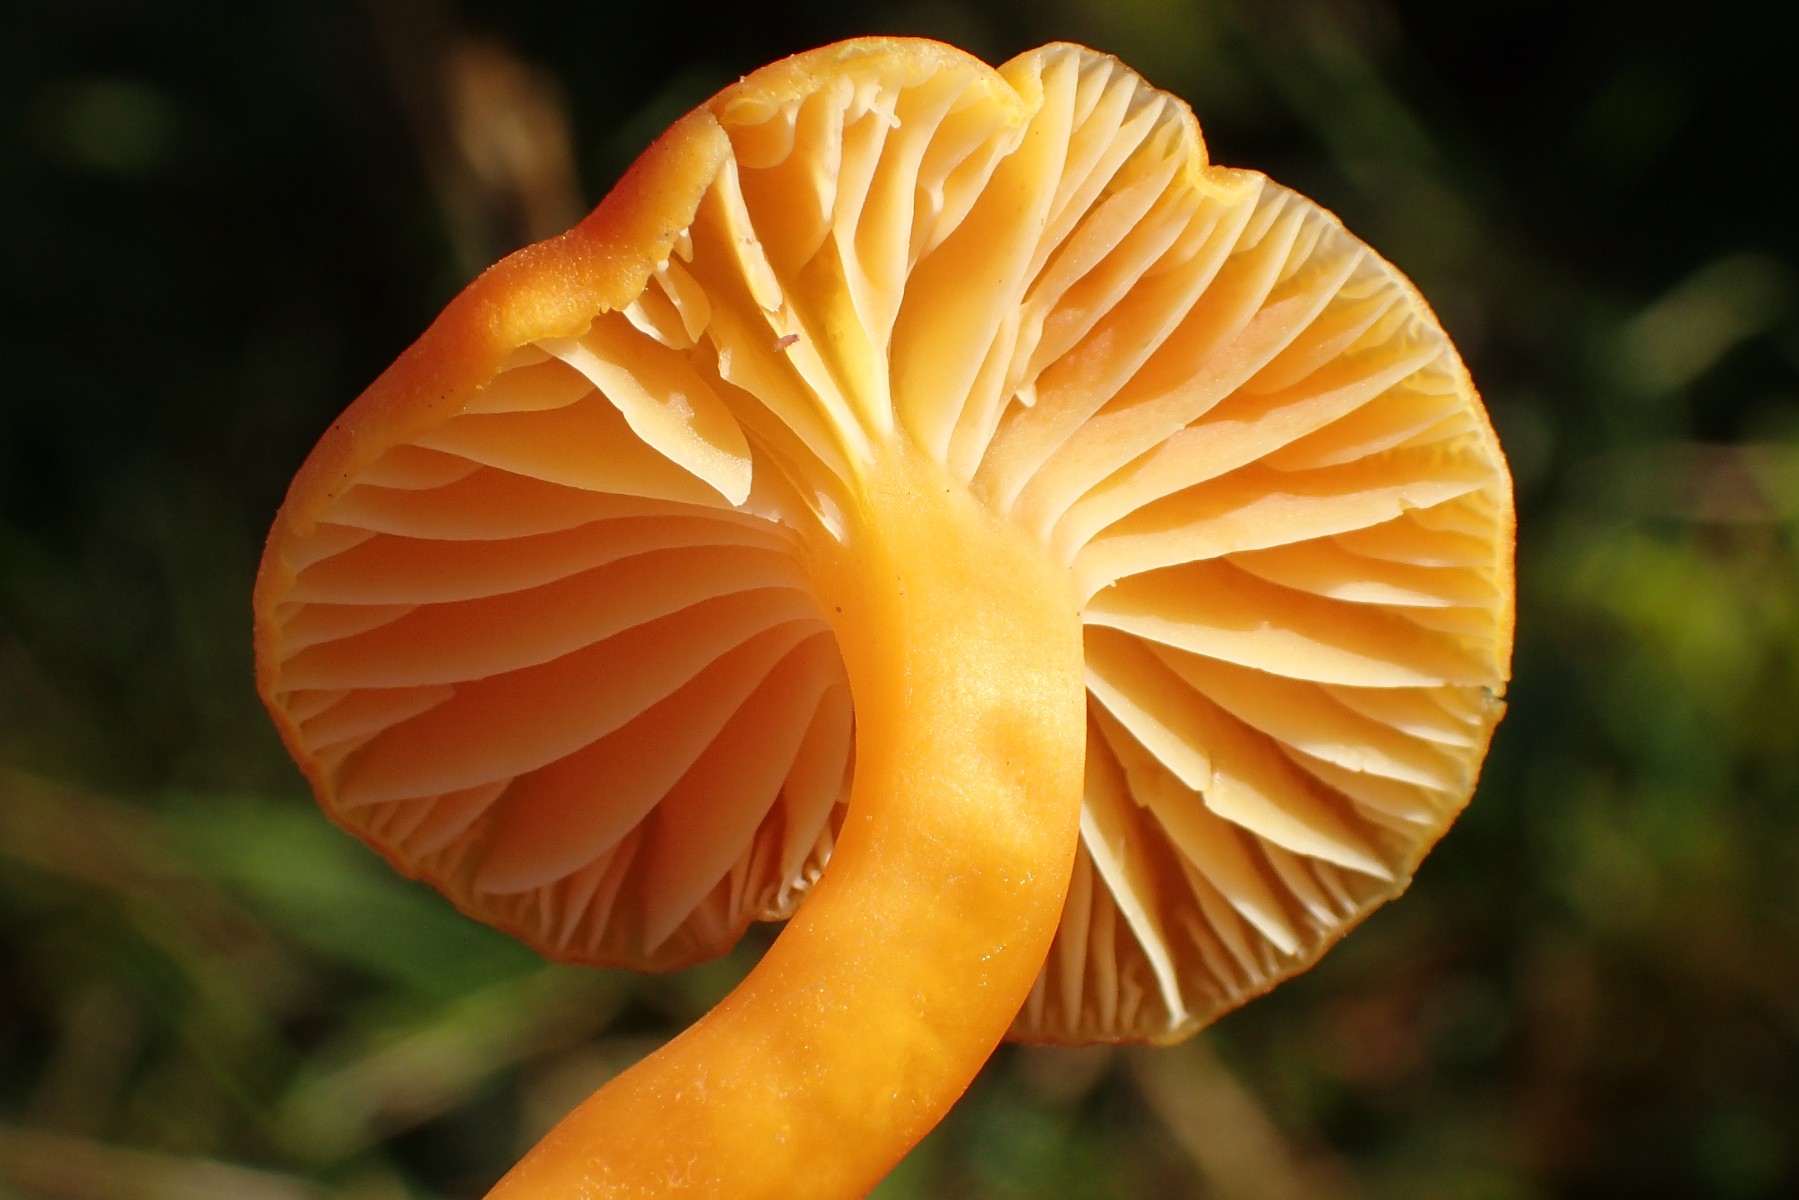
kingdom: Fungi
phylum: Basidiomycota
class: Agaricomycetes
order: Agaricales
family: Hygrophoraceae
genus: Hygrocybe
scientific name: Hygrocybe reidii
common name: honning-vokshat
